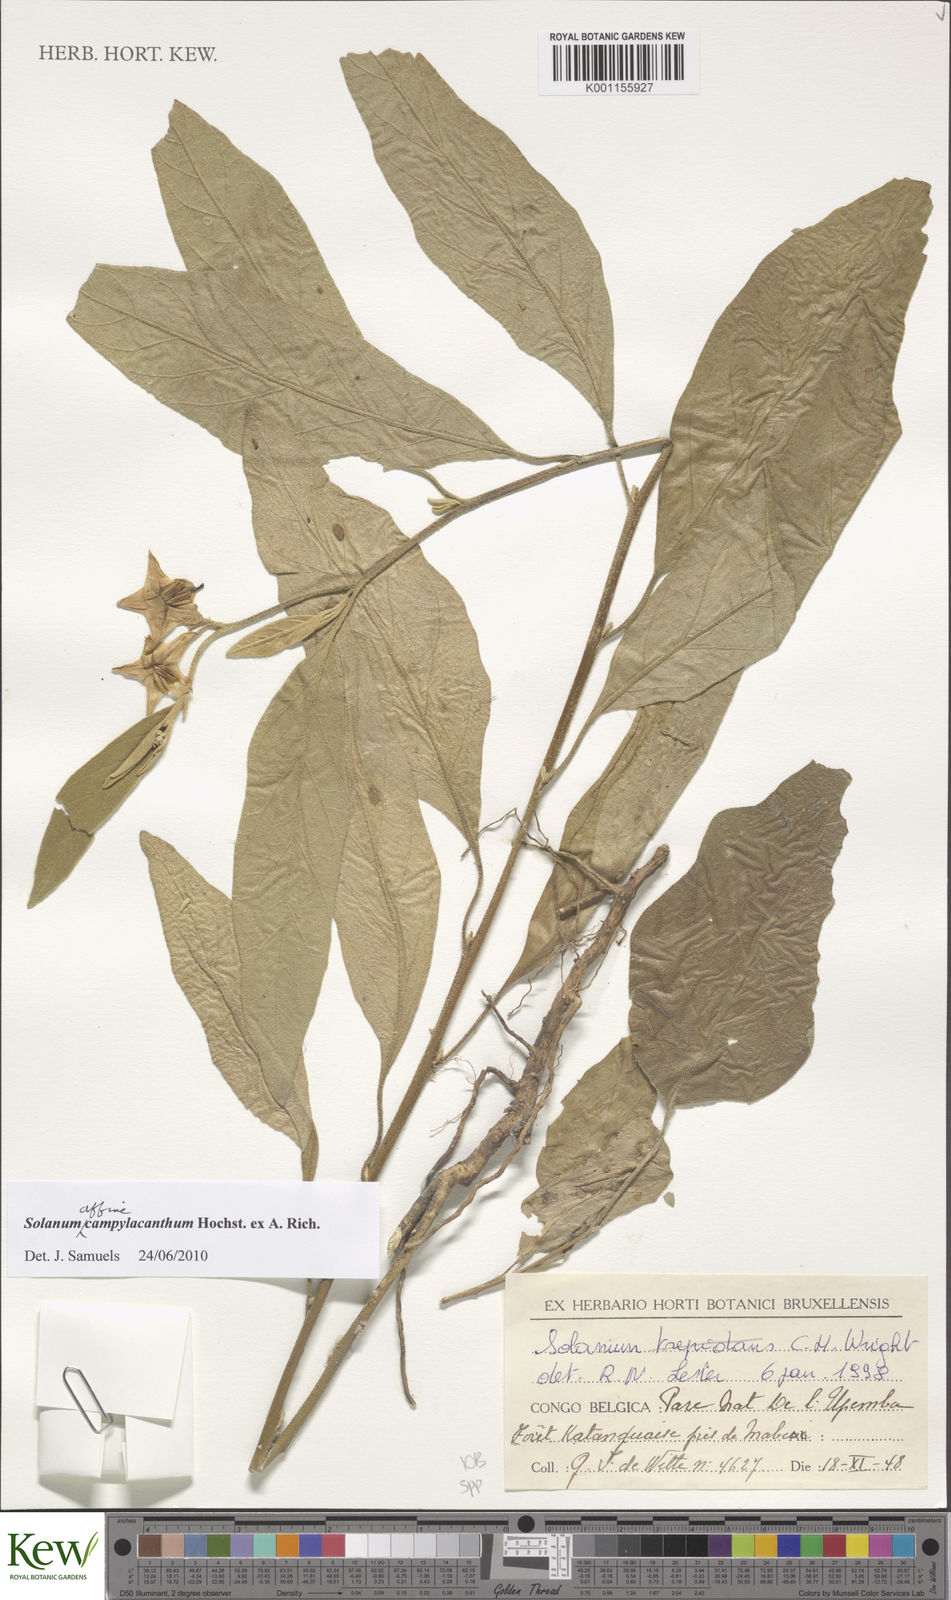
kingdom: Plantae
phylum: Tracheophyta
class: Magnoliopsida
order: Solanales
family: Solanaceae
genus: Solanum
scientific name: Solanum campylacanthum
